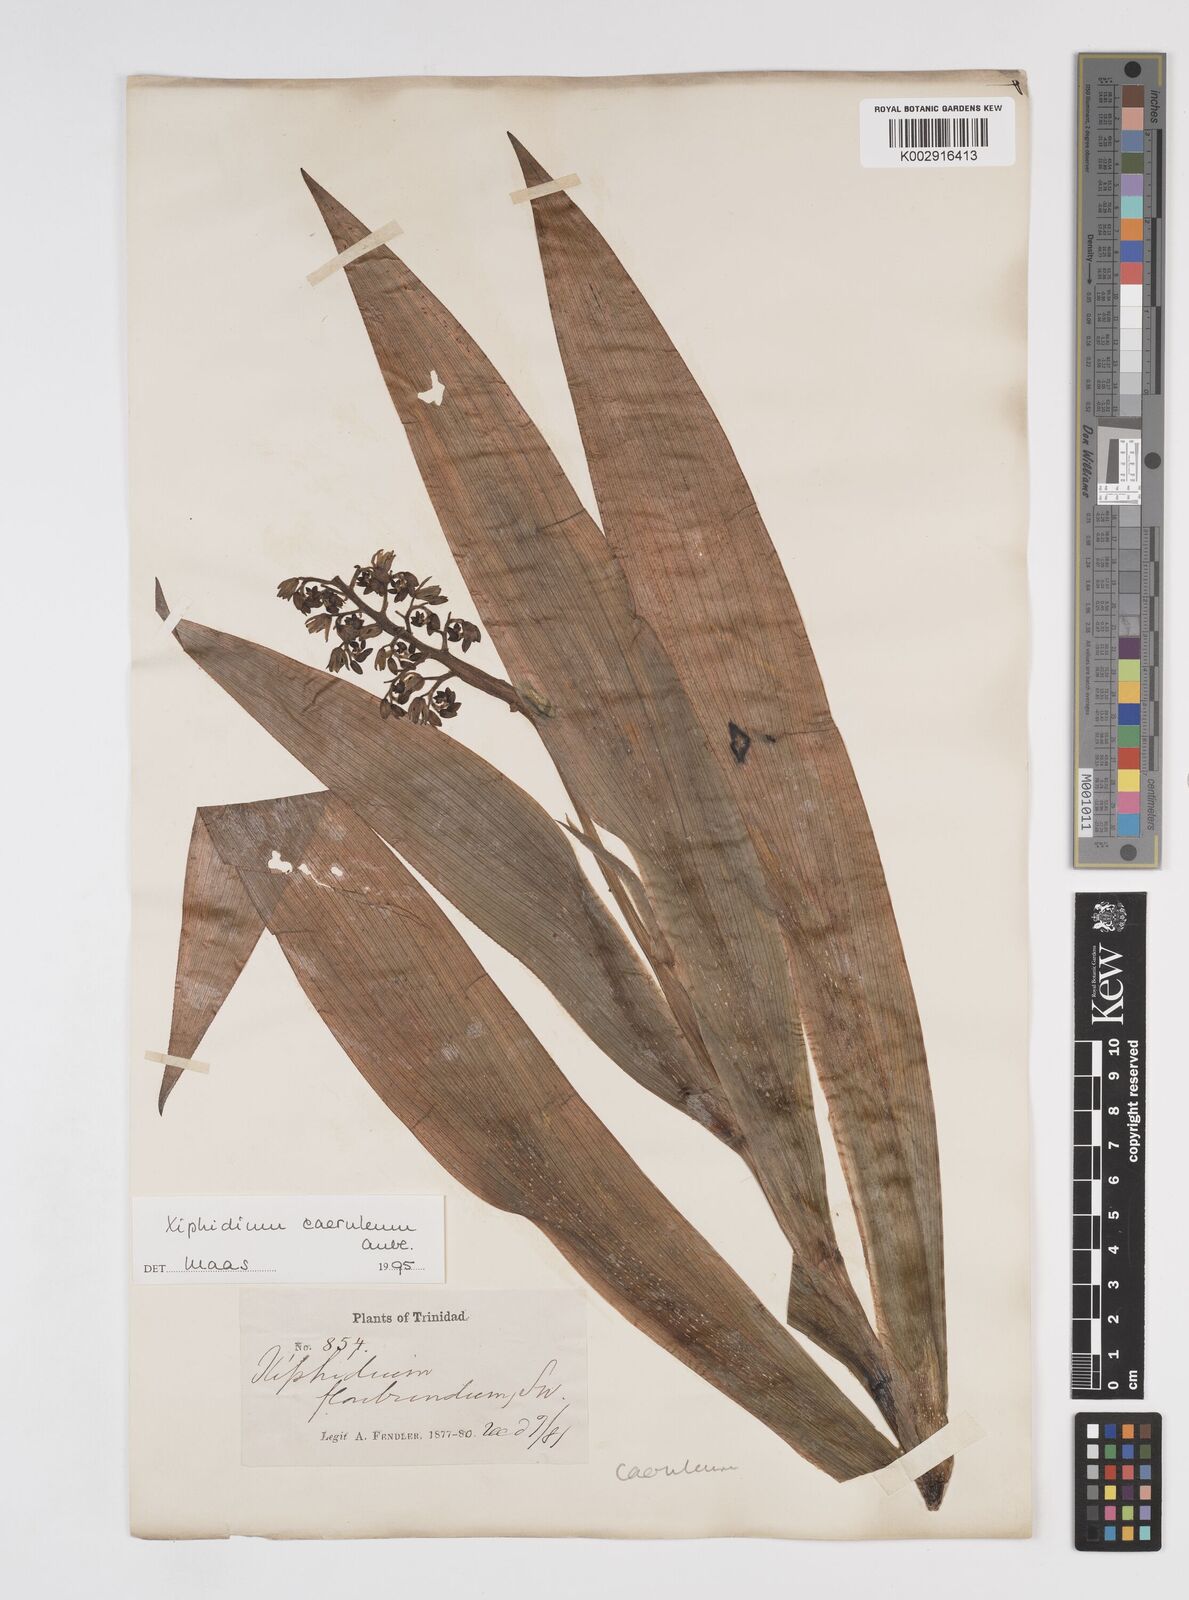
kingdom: Plantae
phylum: Tracheophyta
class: Liliopsida
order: Commelinales
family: Haemodoraceae
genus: Xiphidium
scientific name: Xiphidium caeruleum
